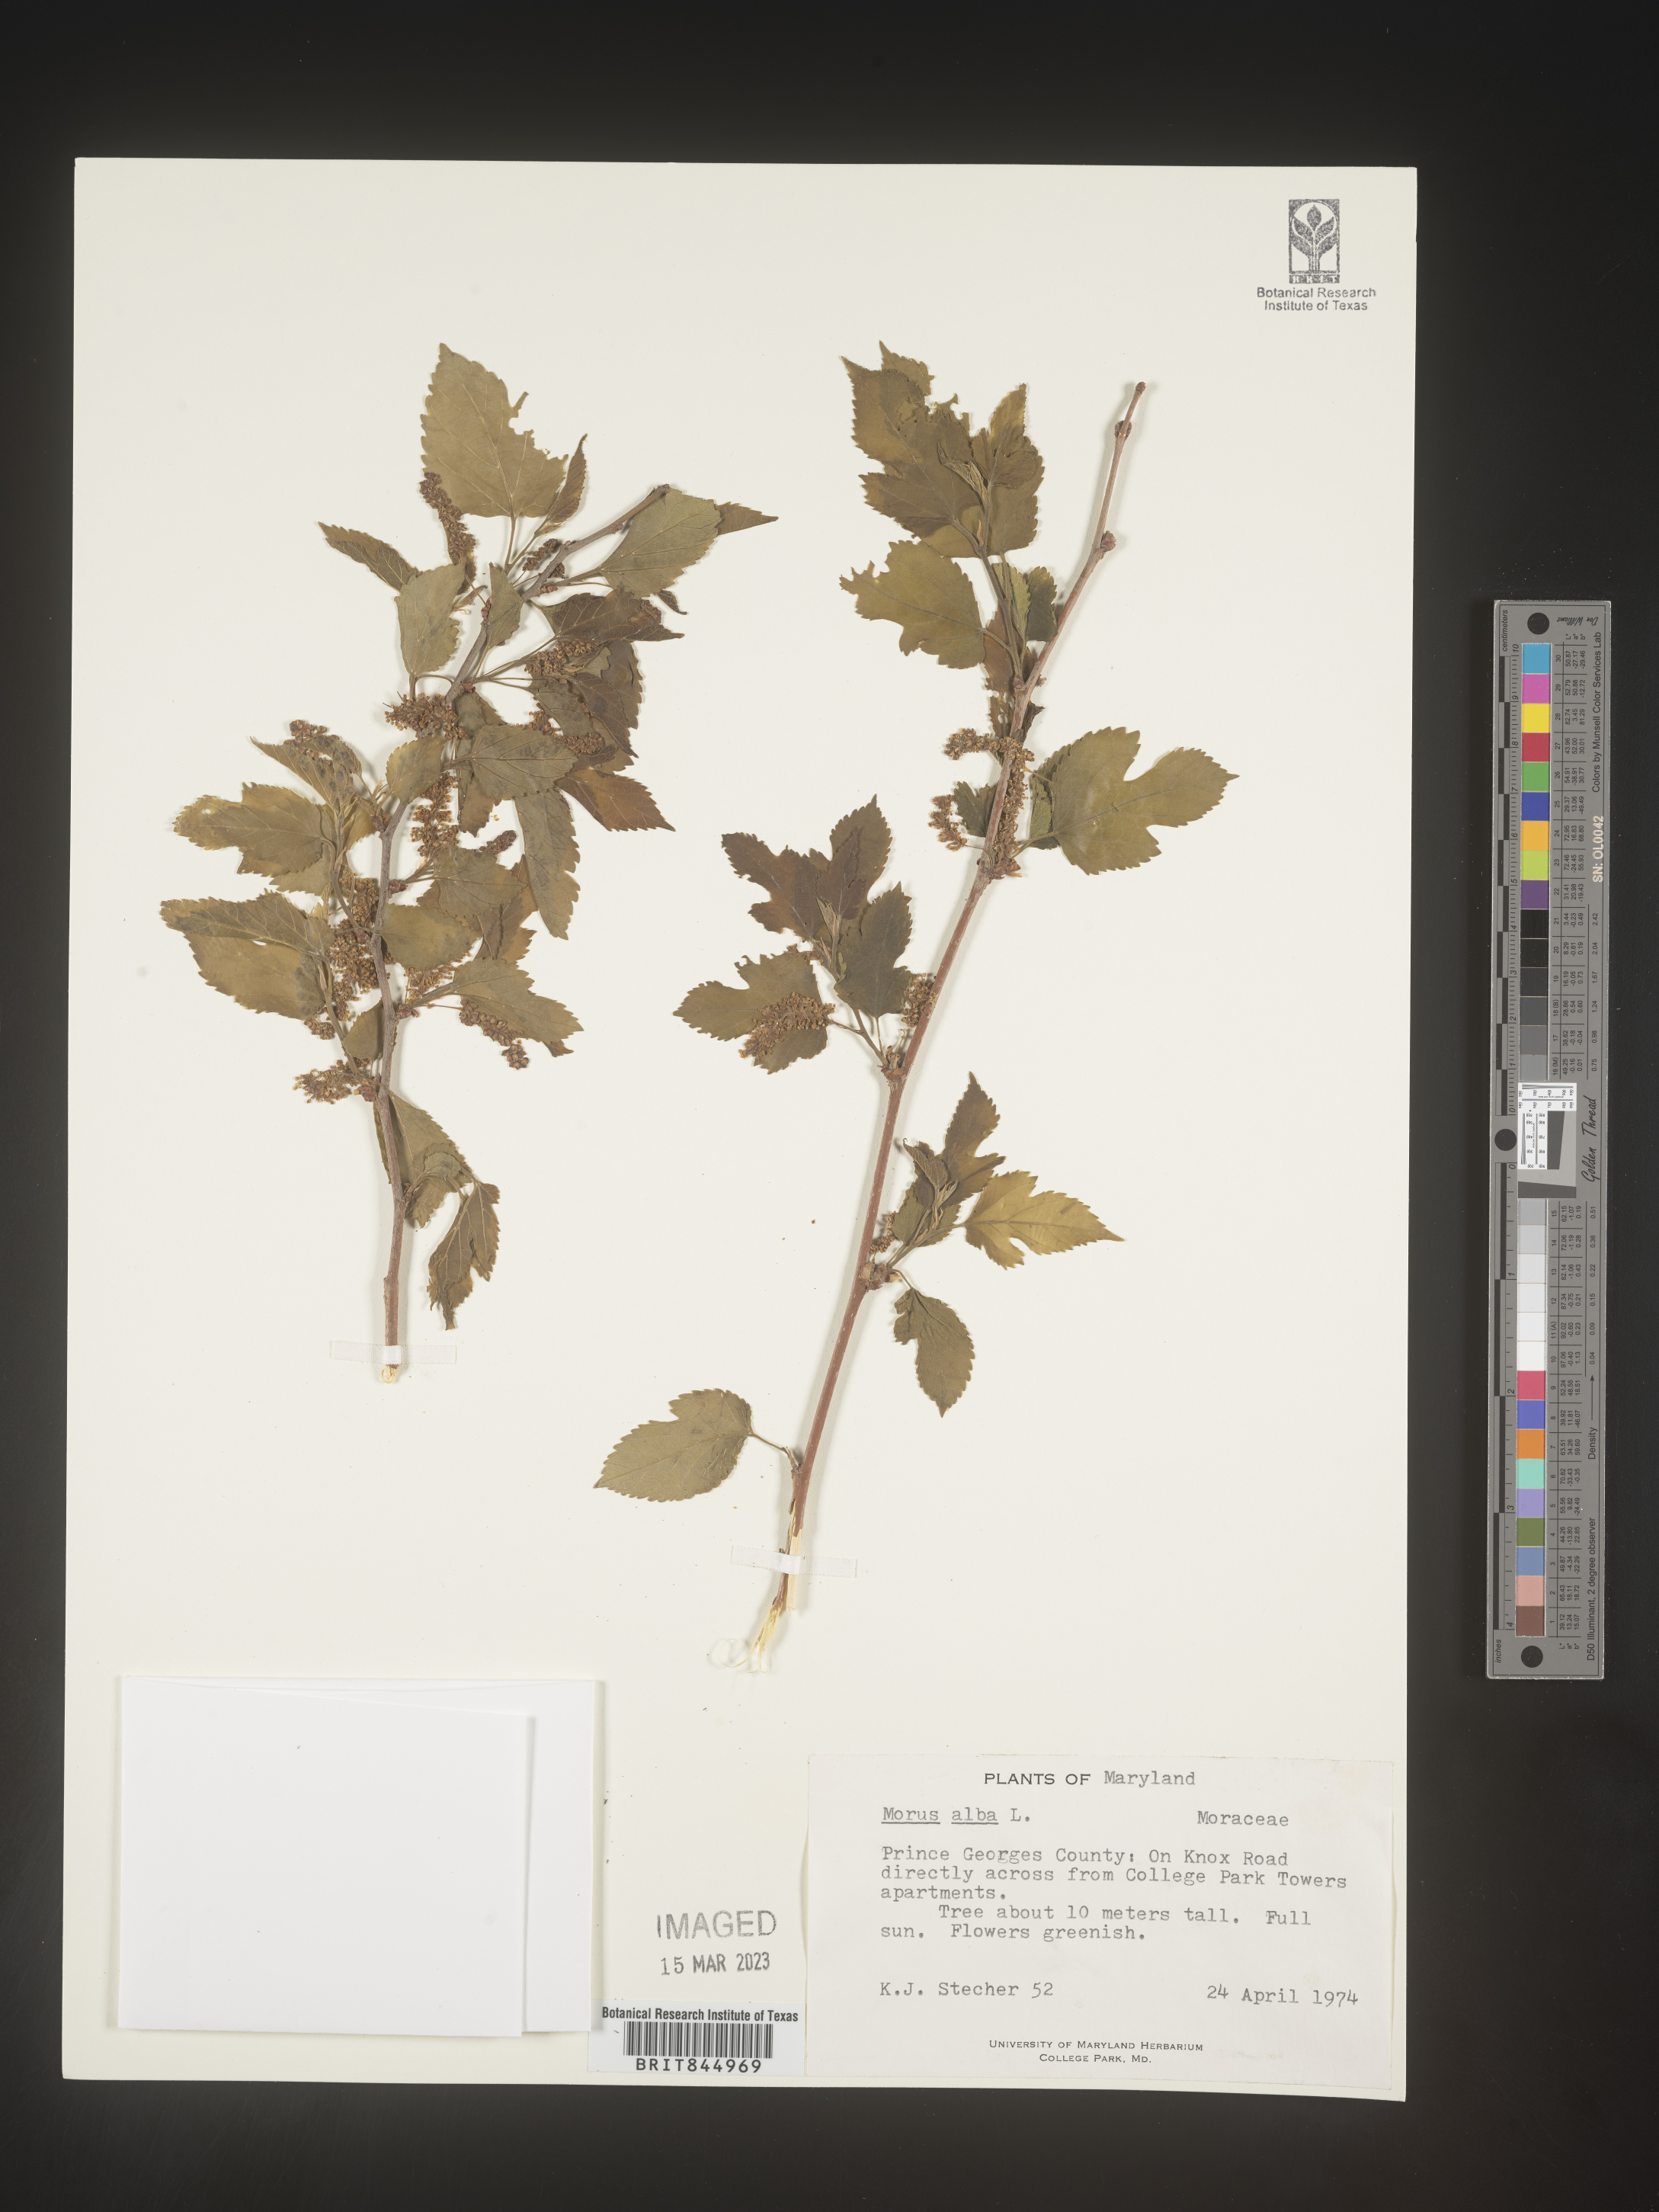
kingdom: Plantae
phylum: Tracheophyta
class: Magnoliopsida
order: Rosales
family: Moraceae
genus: Morus
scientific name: Morus alba
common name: White mulberry
